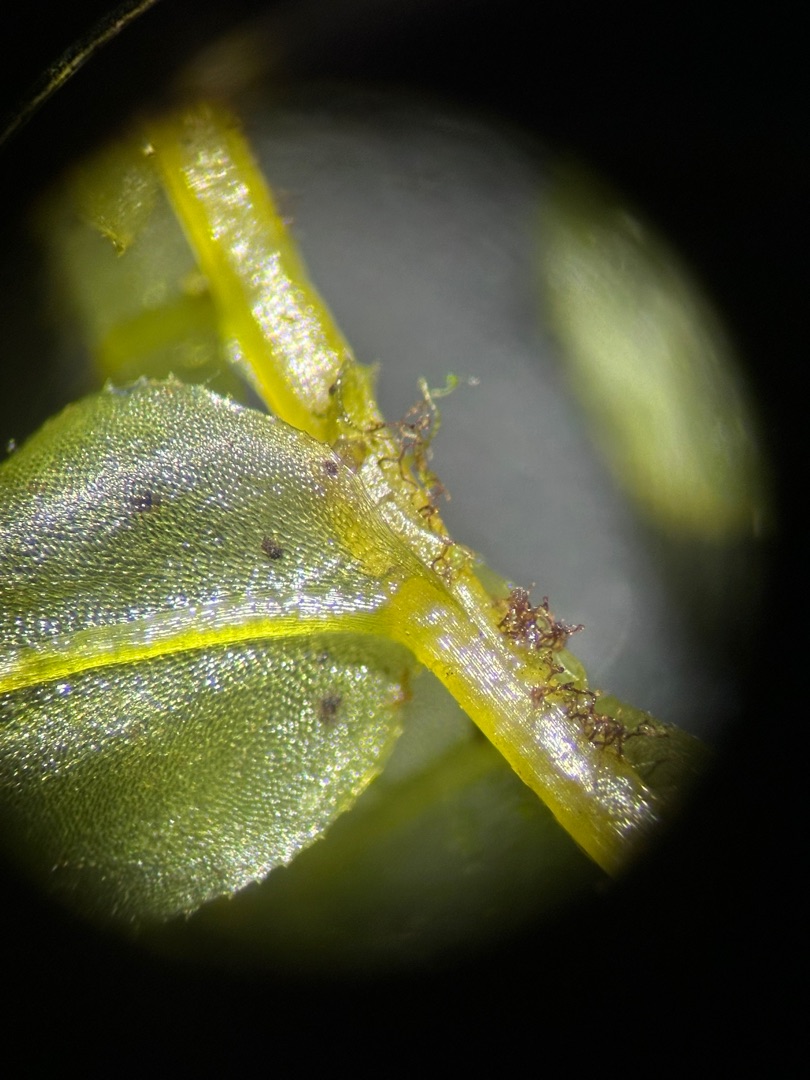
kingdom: Plantae
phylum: Bryophyta
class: Bryopsida
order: Bryales
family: Mniaceae
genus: Plagiomnium
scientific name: Plagiomnium affine
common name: Fælled-krybstjerne
